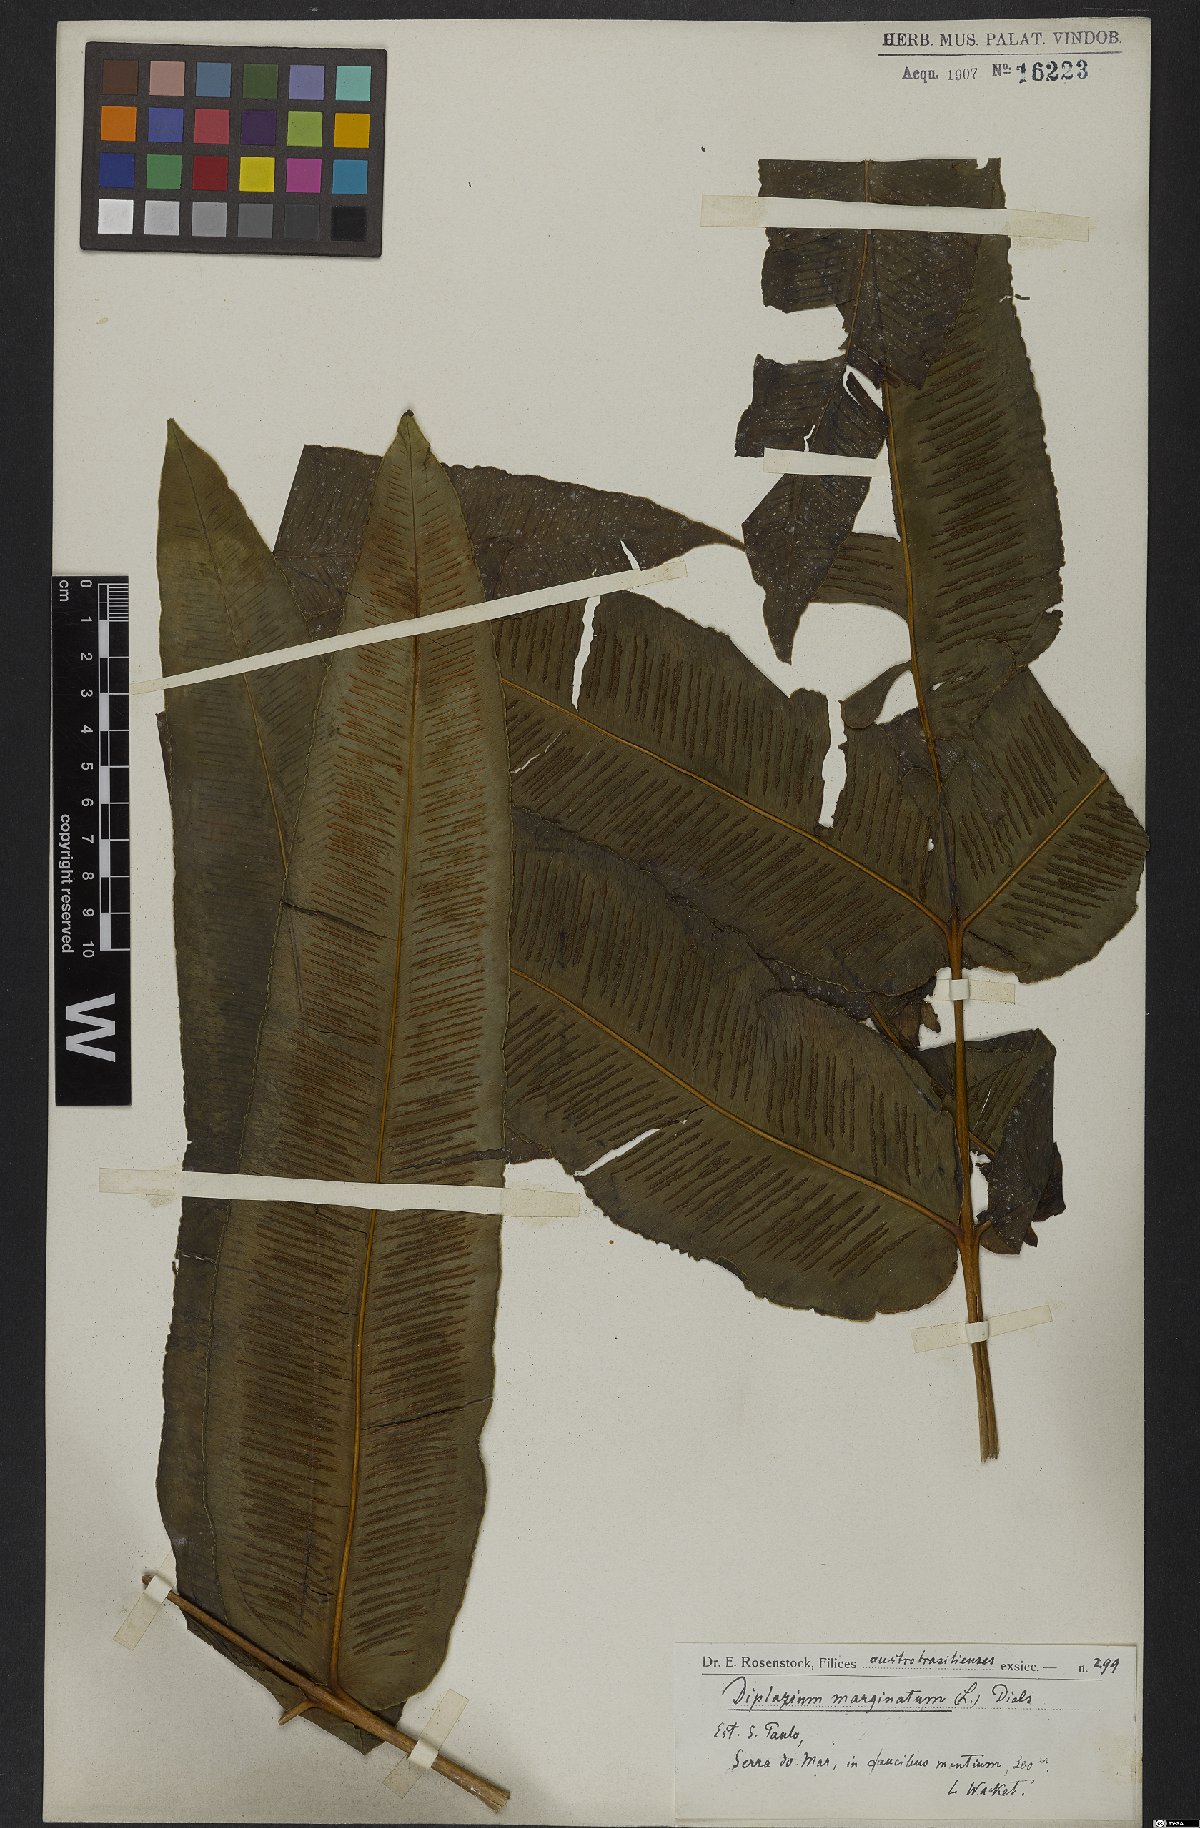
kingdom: Plantae
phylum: Tracheophyta
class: Polypodiopsida
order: Polypodiales
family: Hemidictyaceae
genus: Hemidictyum
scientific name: Hemidictyum marginatum
